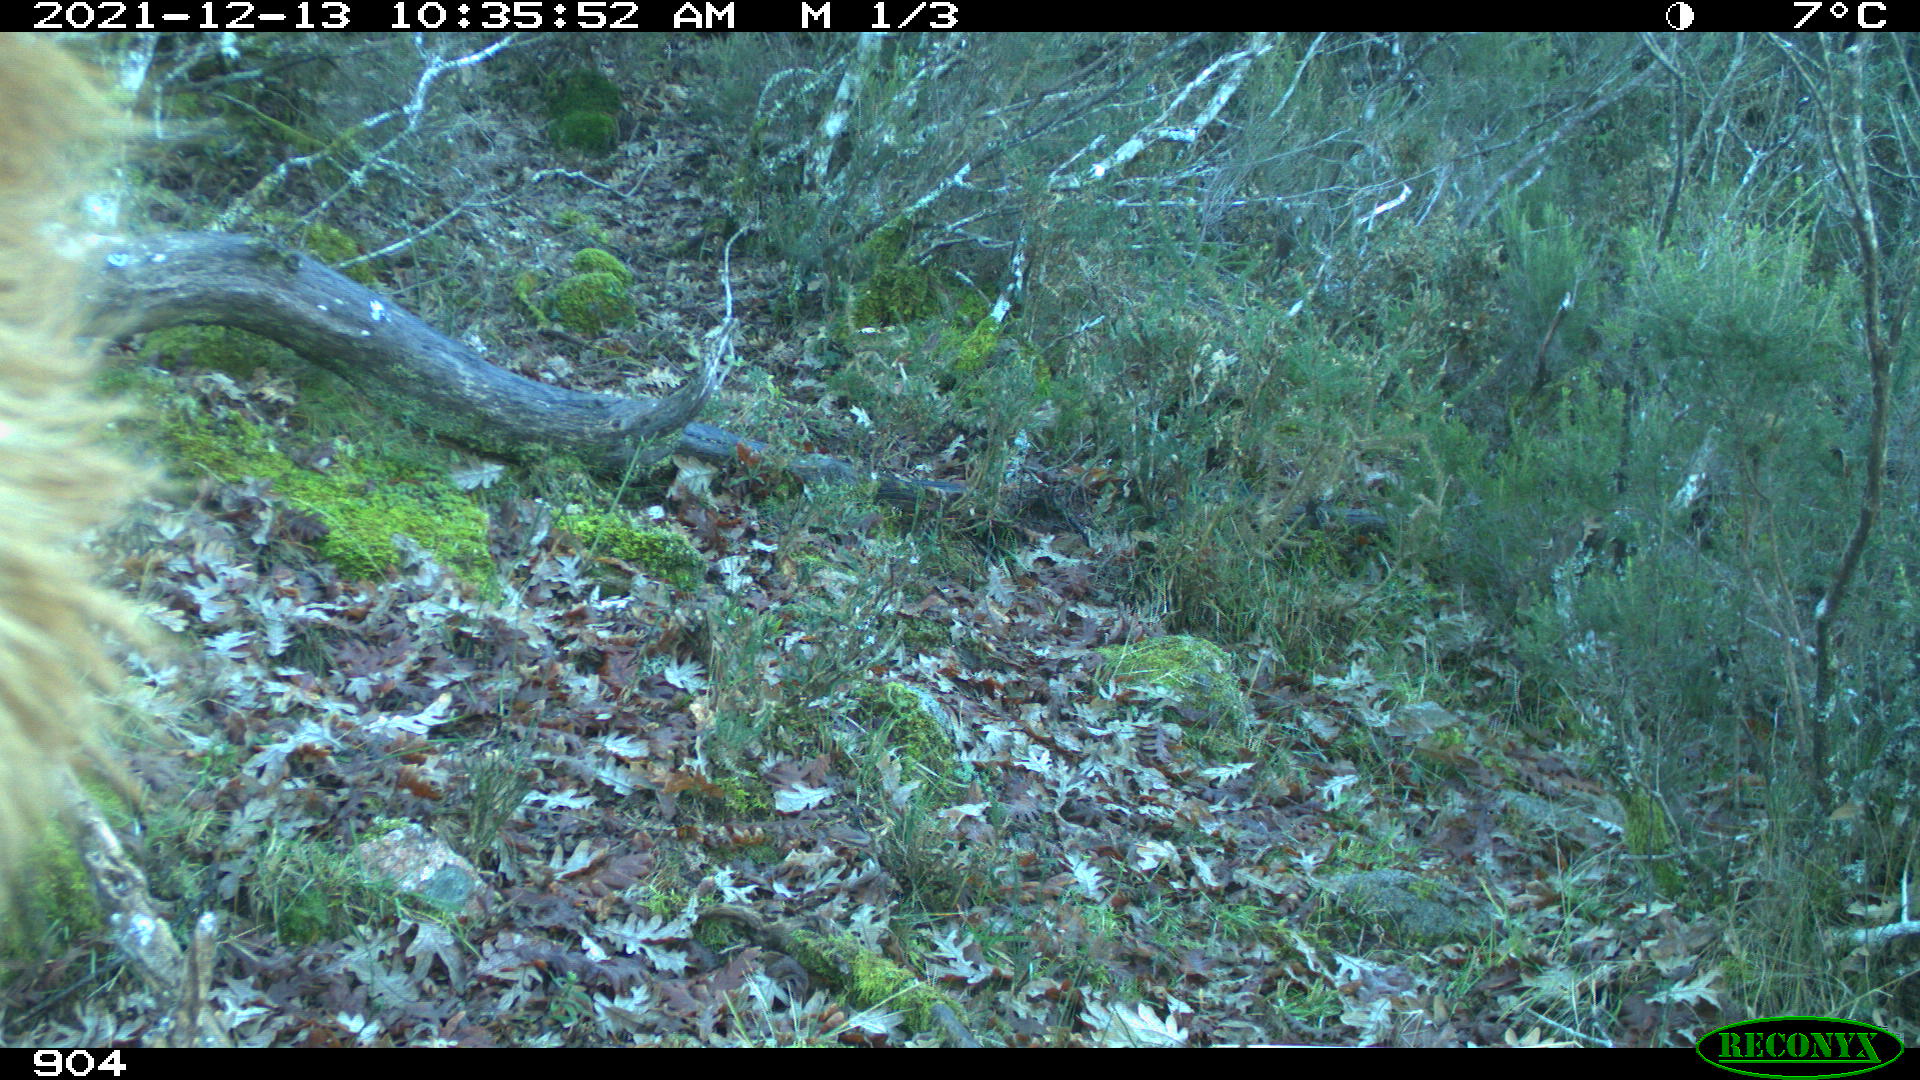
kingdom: Animalia
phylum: Chordata
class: Mammalia
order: Artiodactyla
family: Bovidae
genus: Bos
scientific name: Bos taurus
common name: Domesticated cattle
